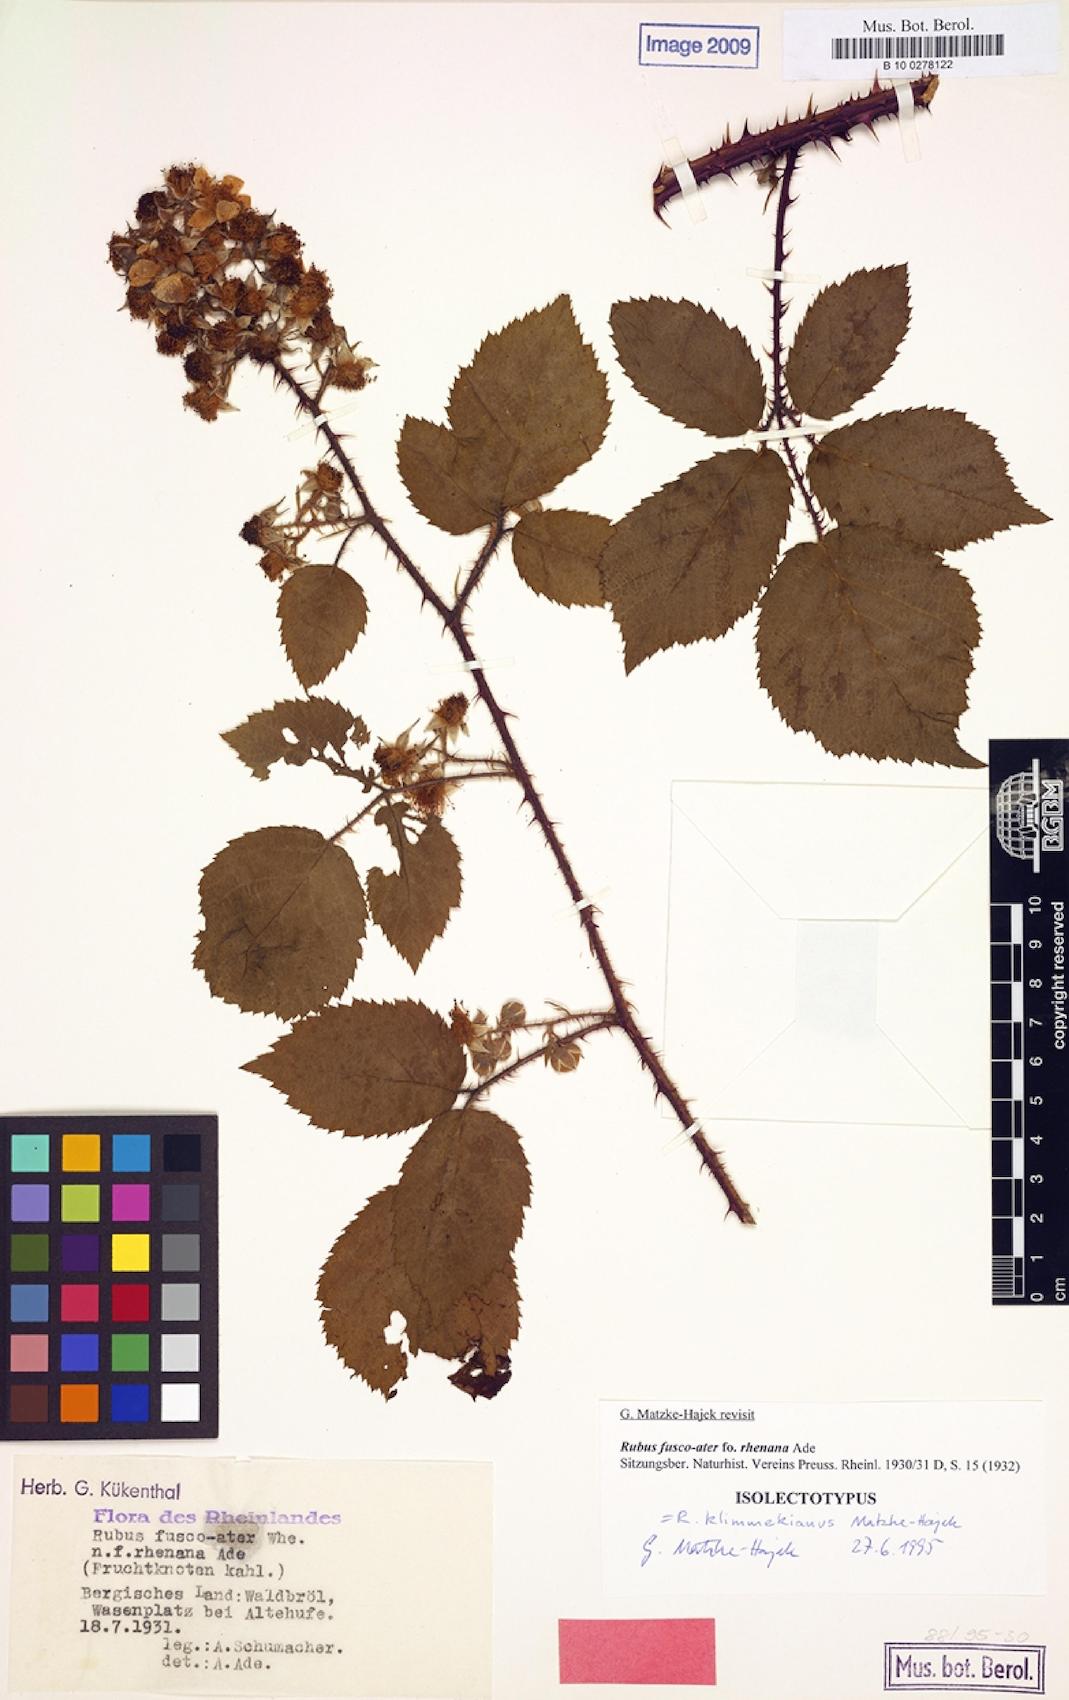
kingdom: Plantae
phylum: Tracheophyta
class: Magnoliopsida
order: Rosales
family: Rosaceae
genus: Rubus
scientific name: Rubus klimmekianus
